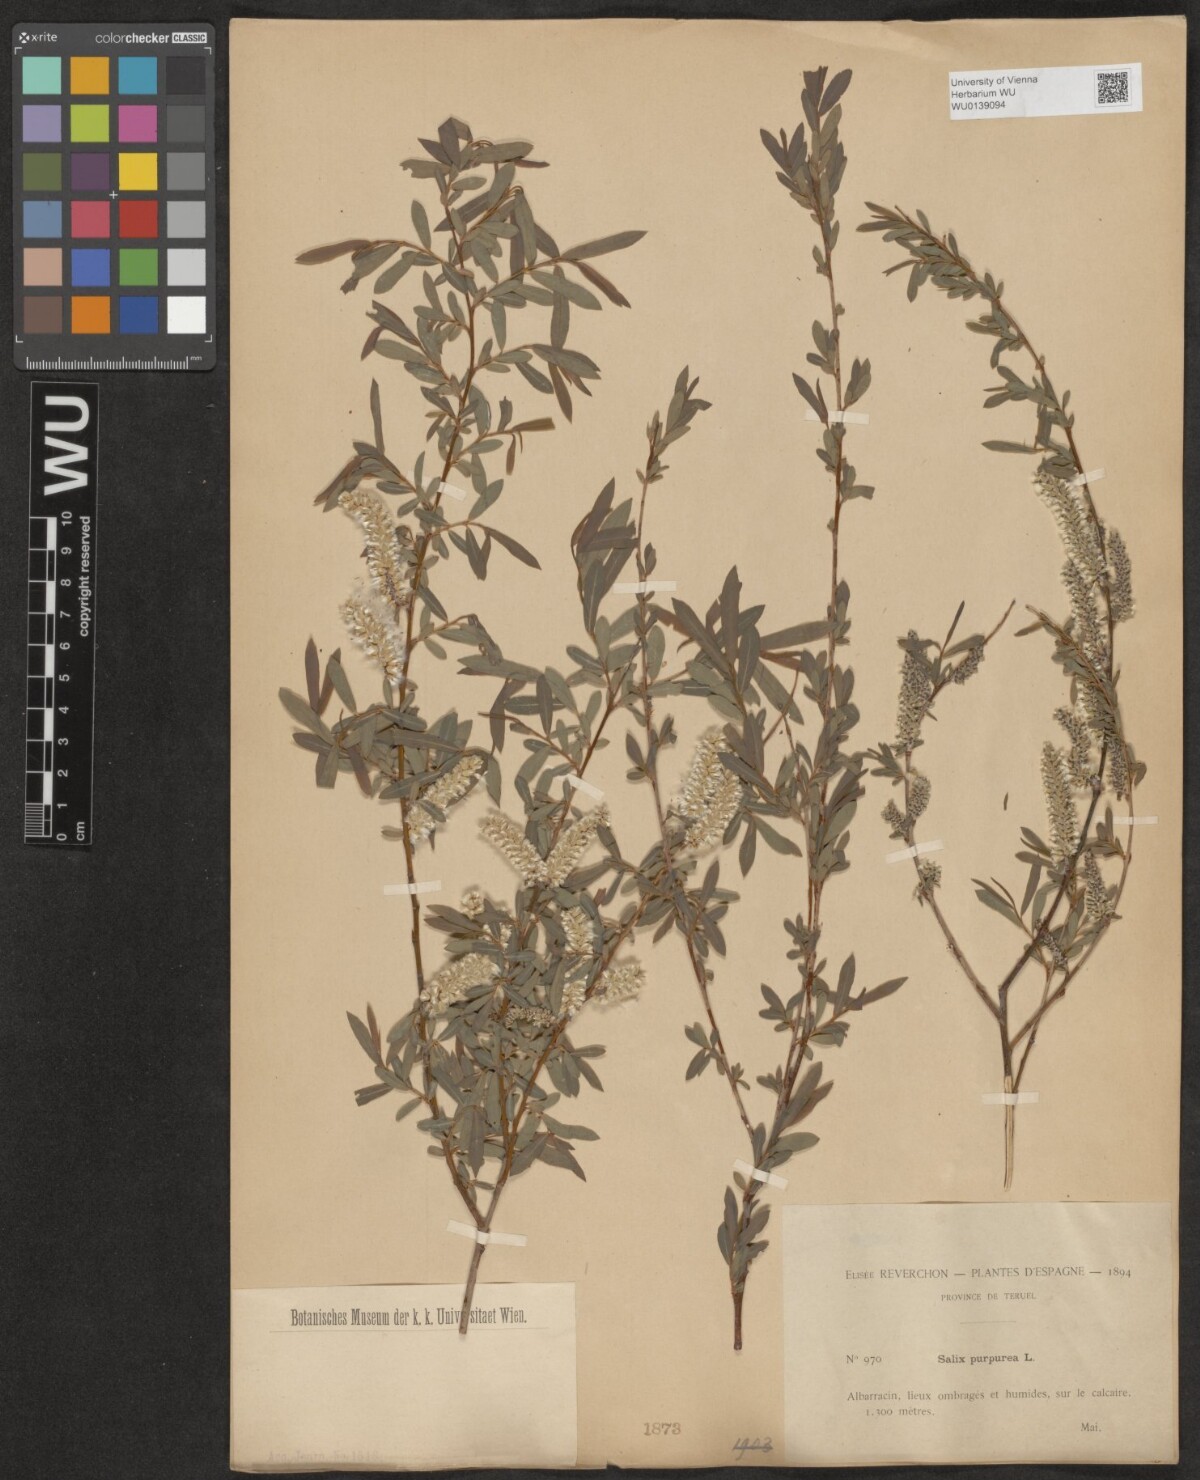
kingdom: Plantae
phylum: Tracheophyta
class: Magnoliopsida
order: Malpighiales
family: Salicaceae
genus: Salix
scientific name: Salix purpurea
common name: Purple willow
